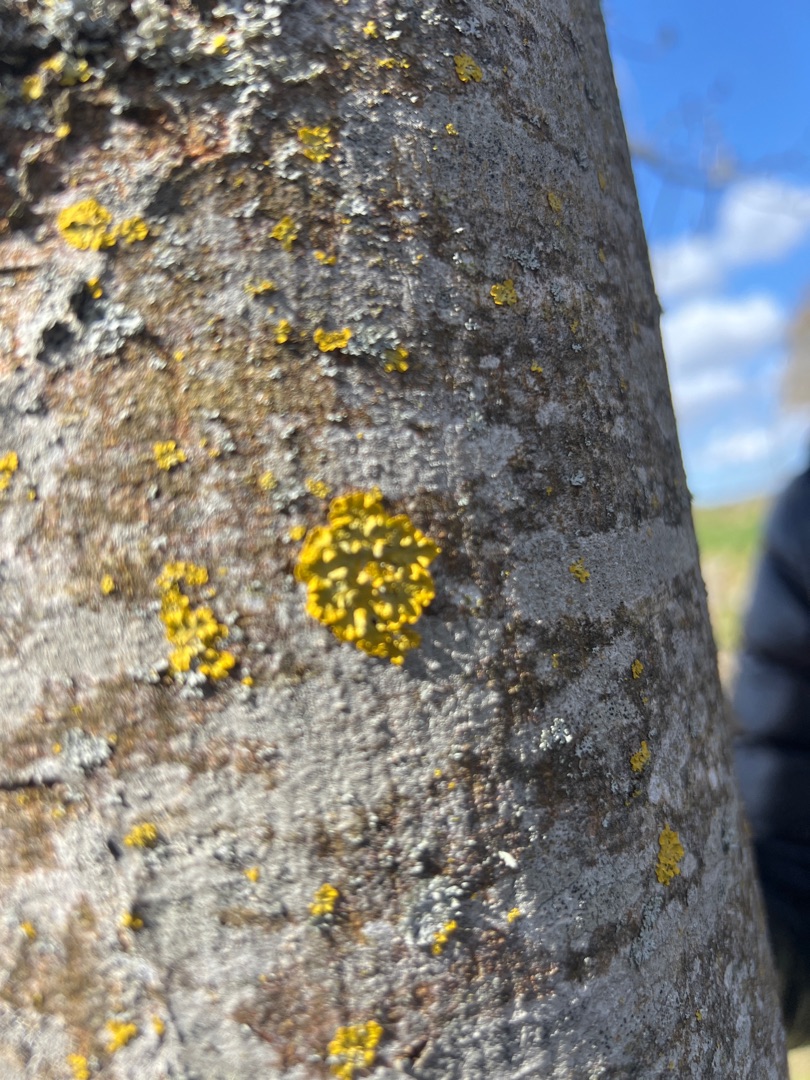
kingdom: Fungi
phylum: Ascomycota
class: Lecanoromycetes
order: Teloschistales
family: Teloschistaceae
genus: Xanthoria
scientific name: Xanthoria parietina
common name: Almindelig væggelav
